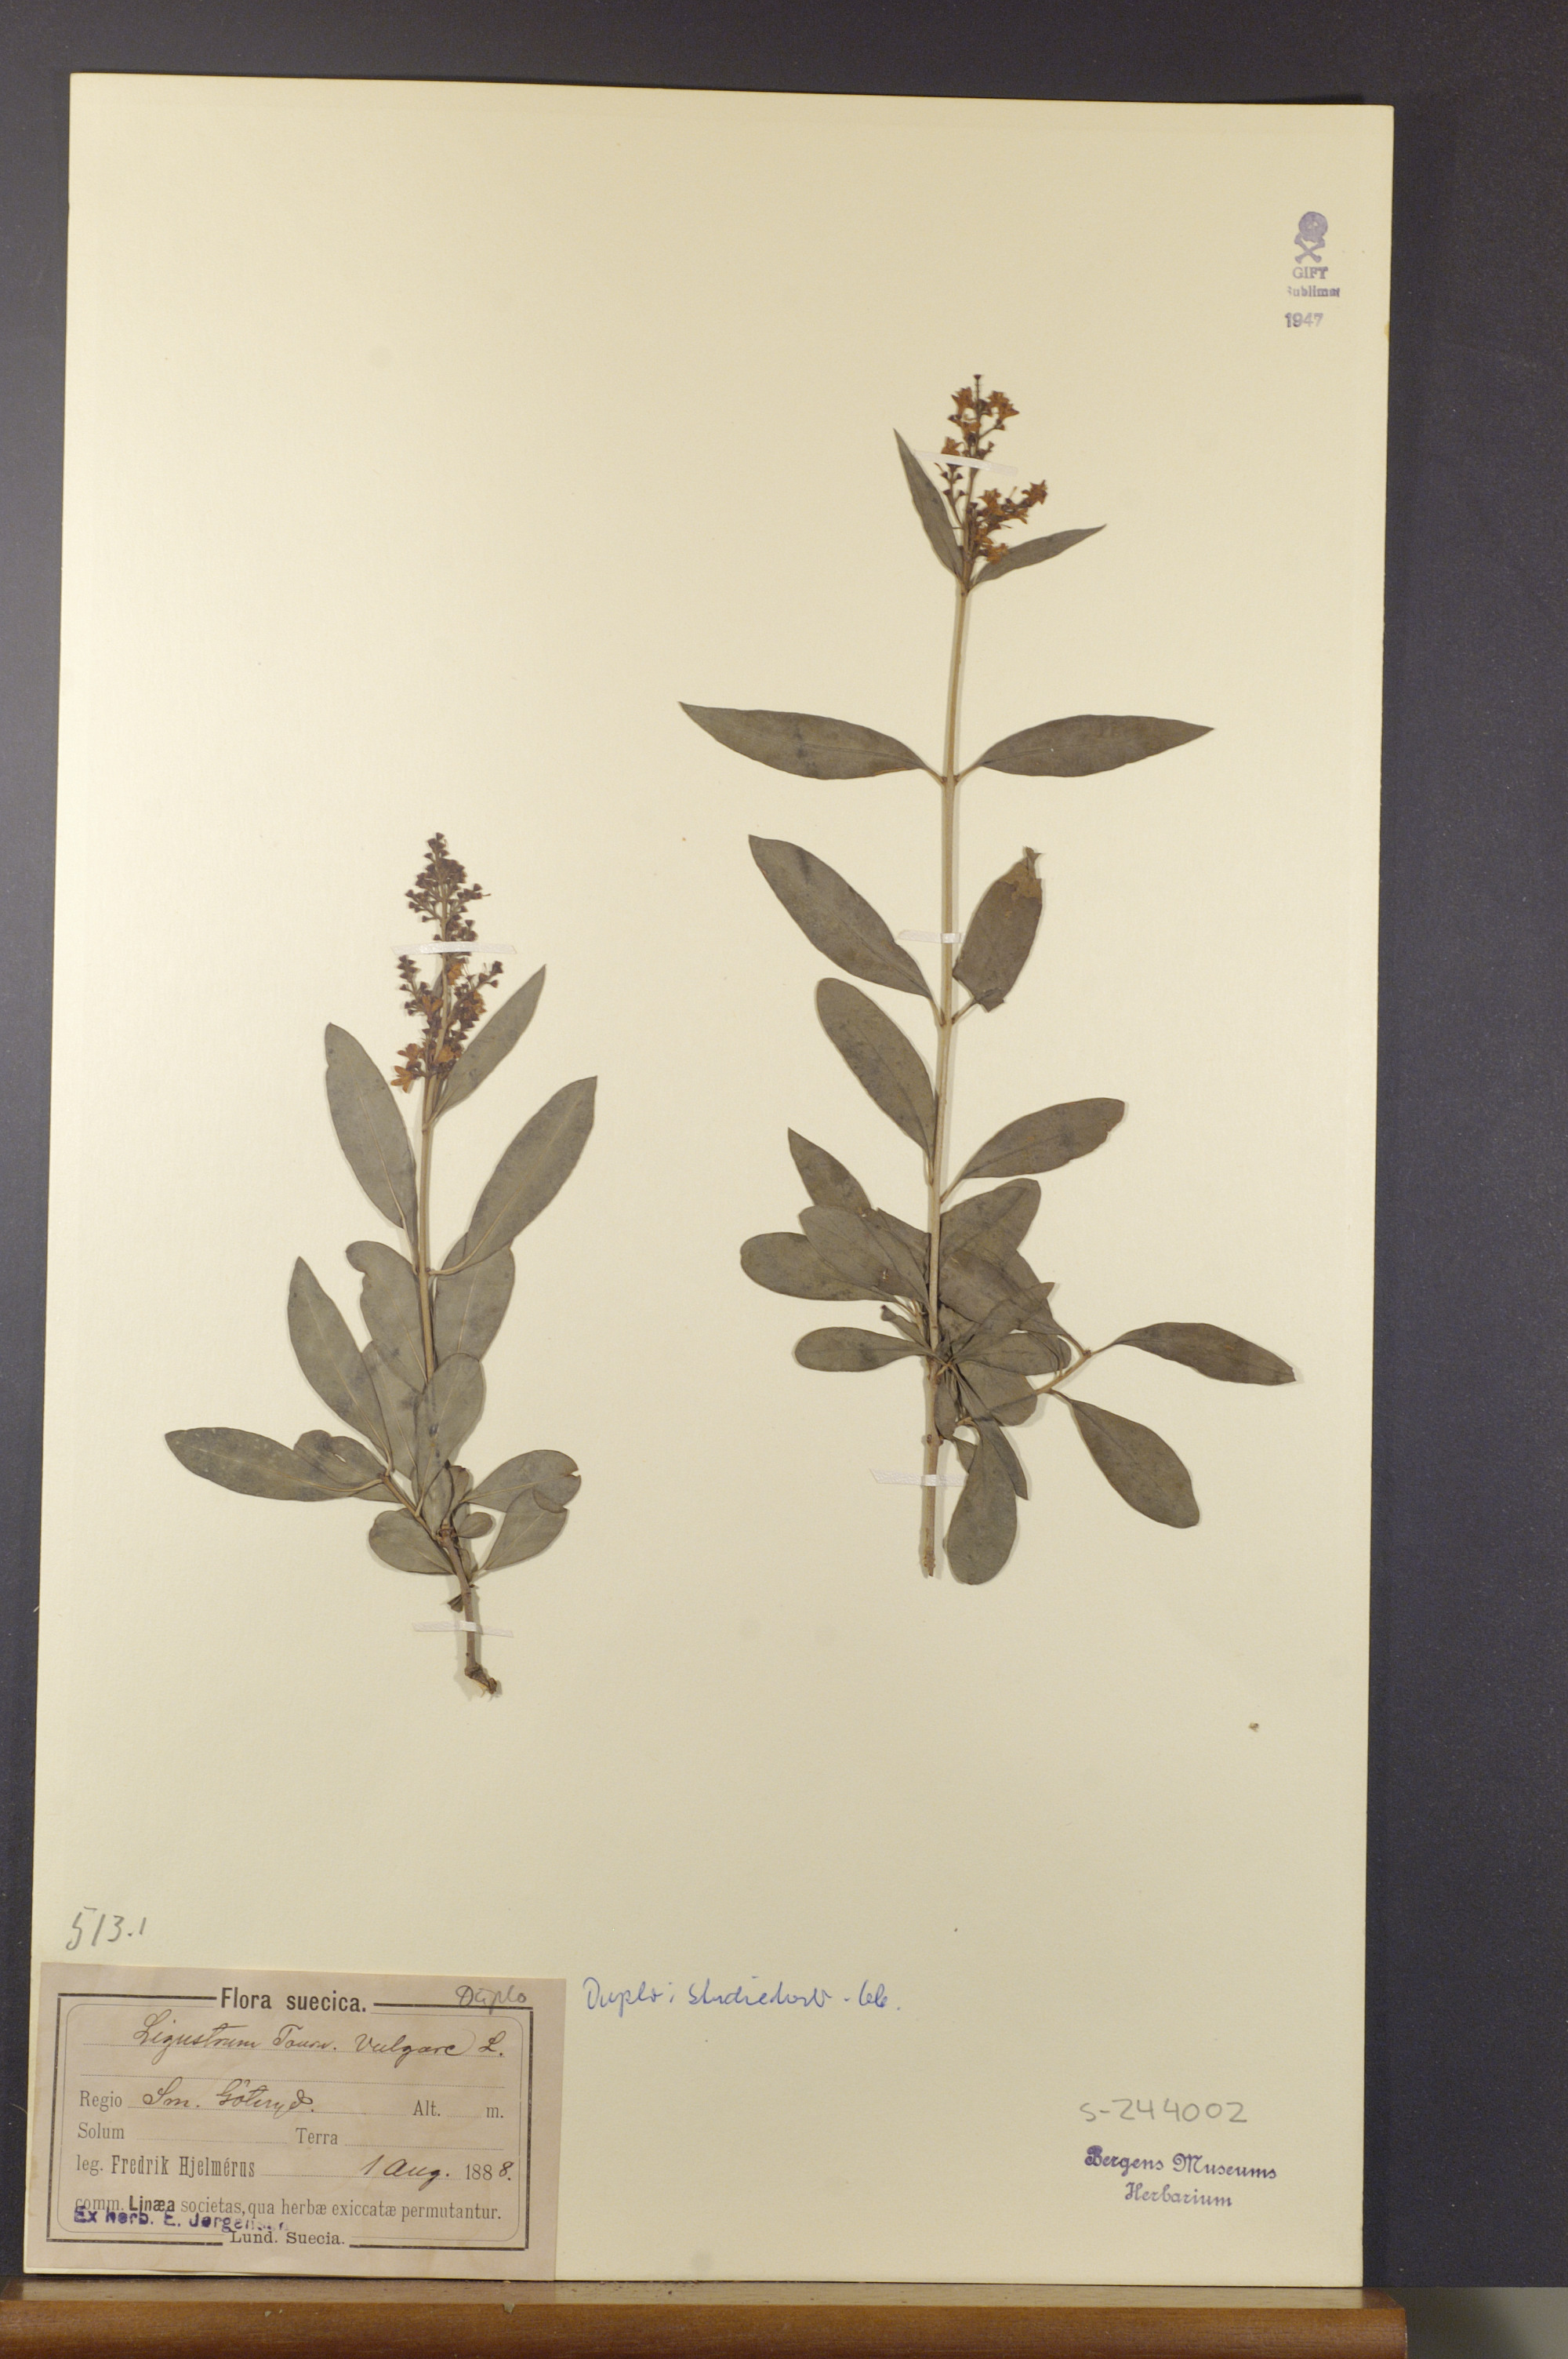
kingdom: Plantae
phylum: Tracheophyta
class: Magnoliopsida
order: Lamiales
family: Oleaceae
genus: Ligustrum
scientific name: Ligustrum vulgare
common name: Wild privet
